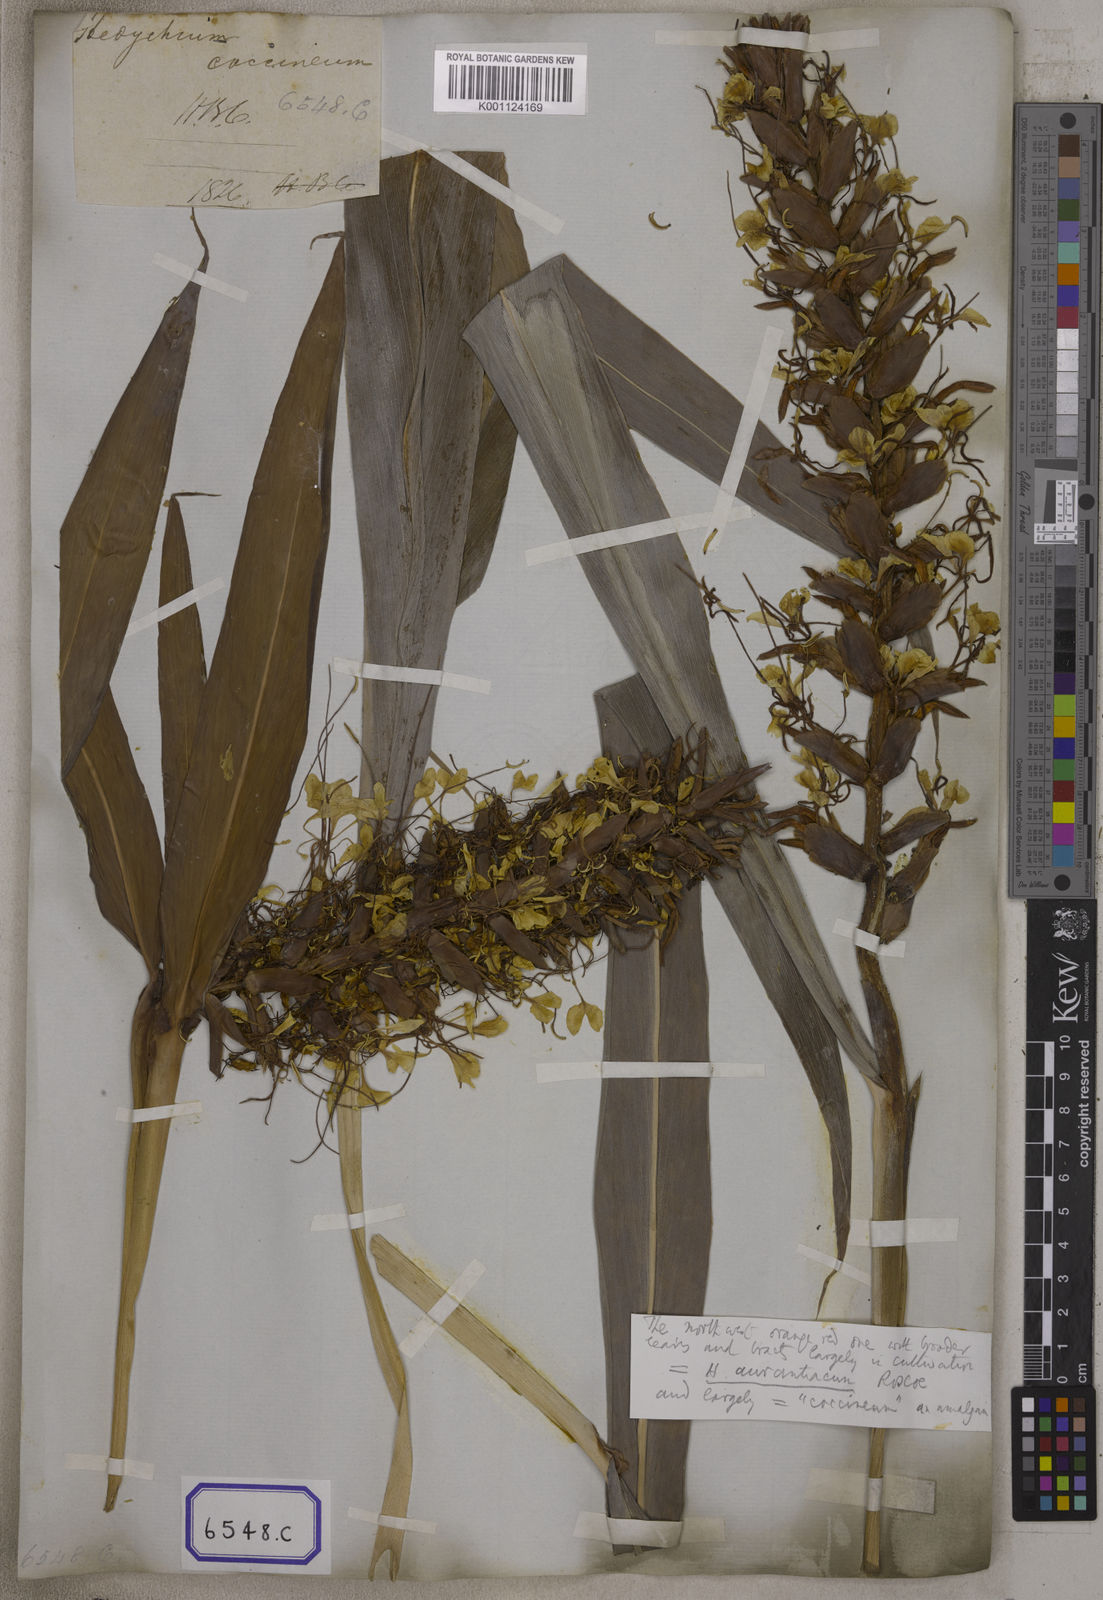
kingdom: Plantae
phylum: Tracheophyta
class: Liliopsida
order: Zingiberales
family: Zingiberaceae
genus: Hedychium
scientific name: Hedychium coccineum
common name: Red ginger-lily
